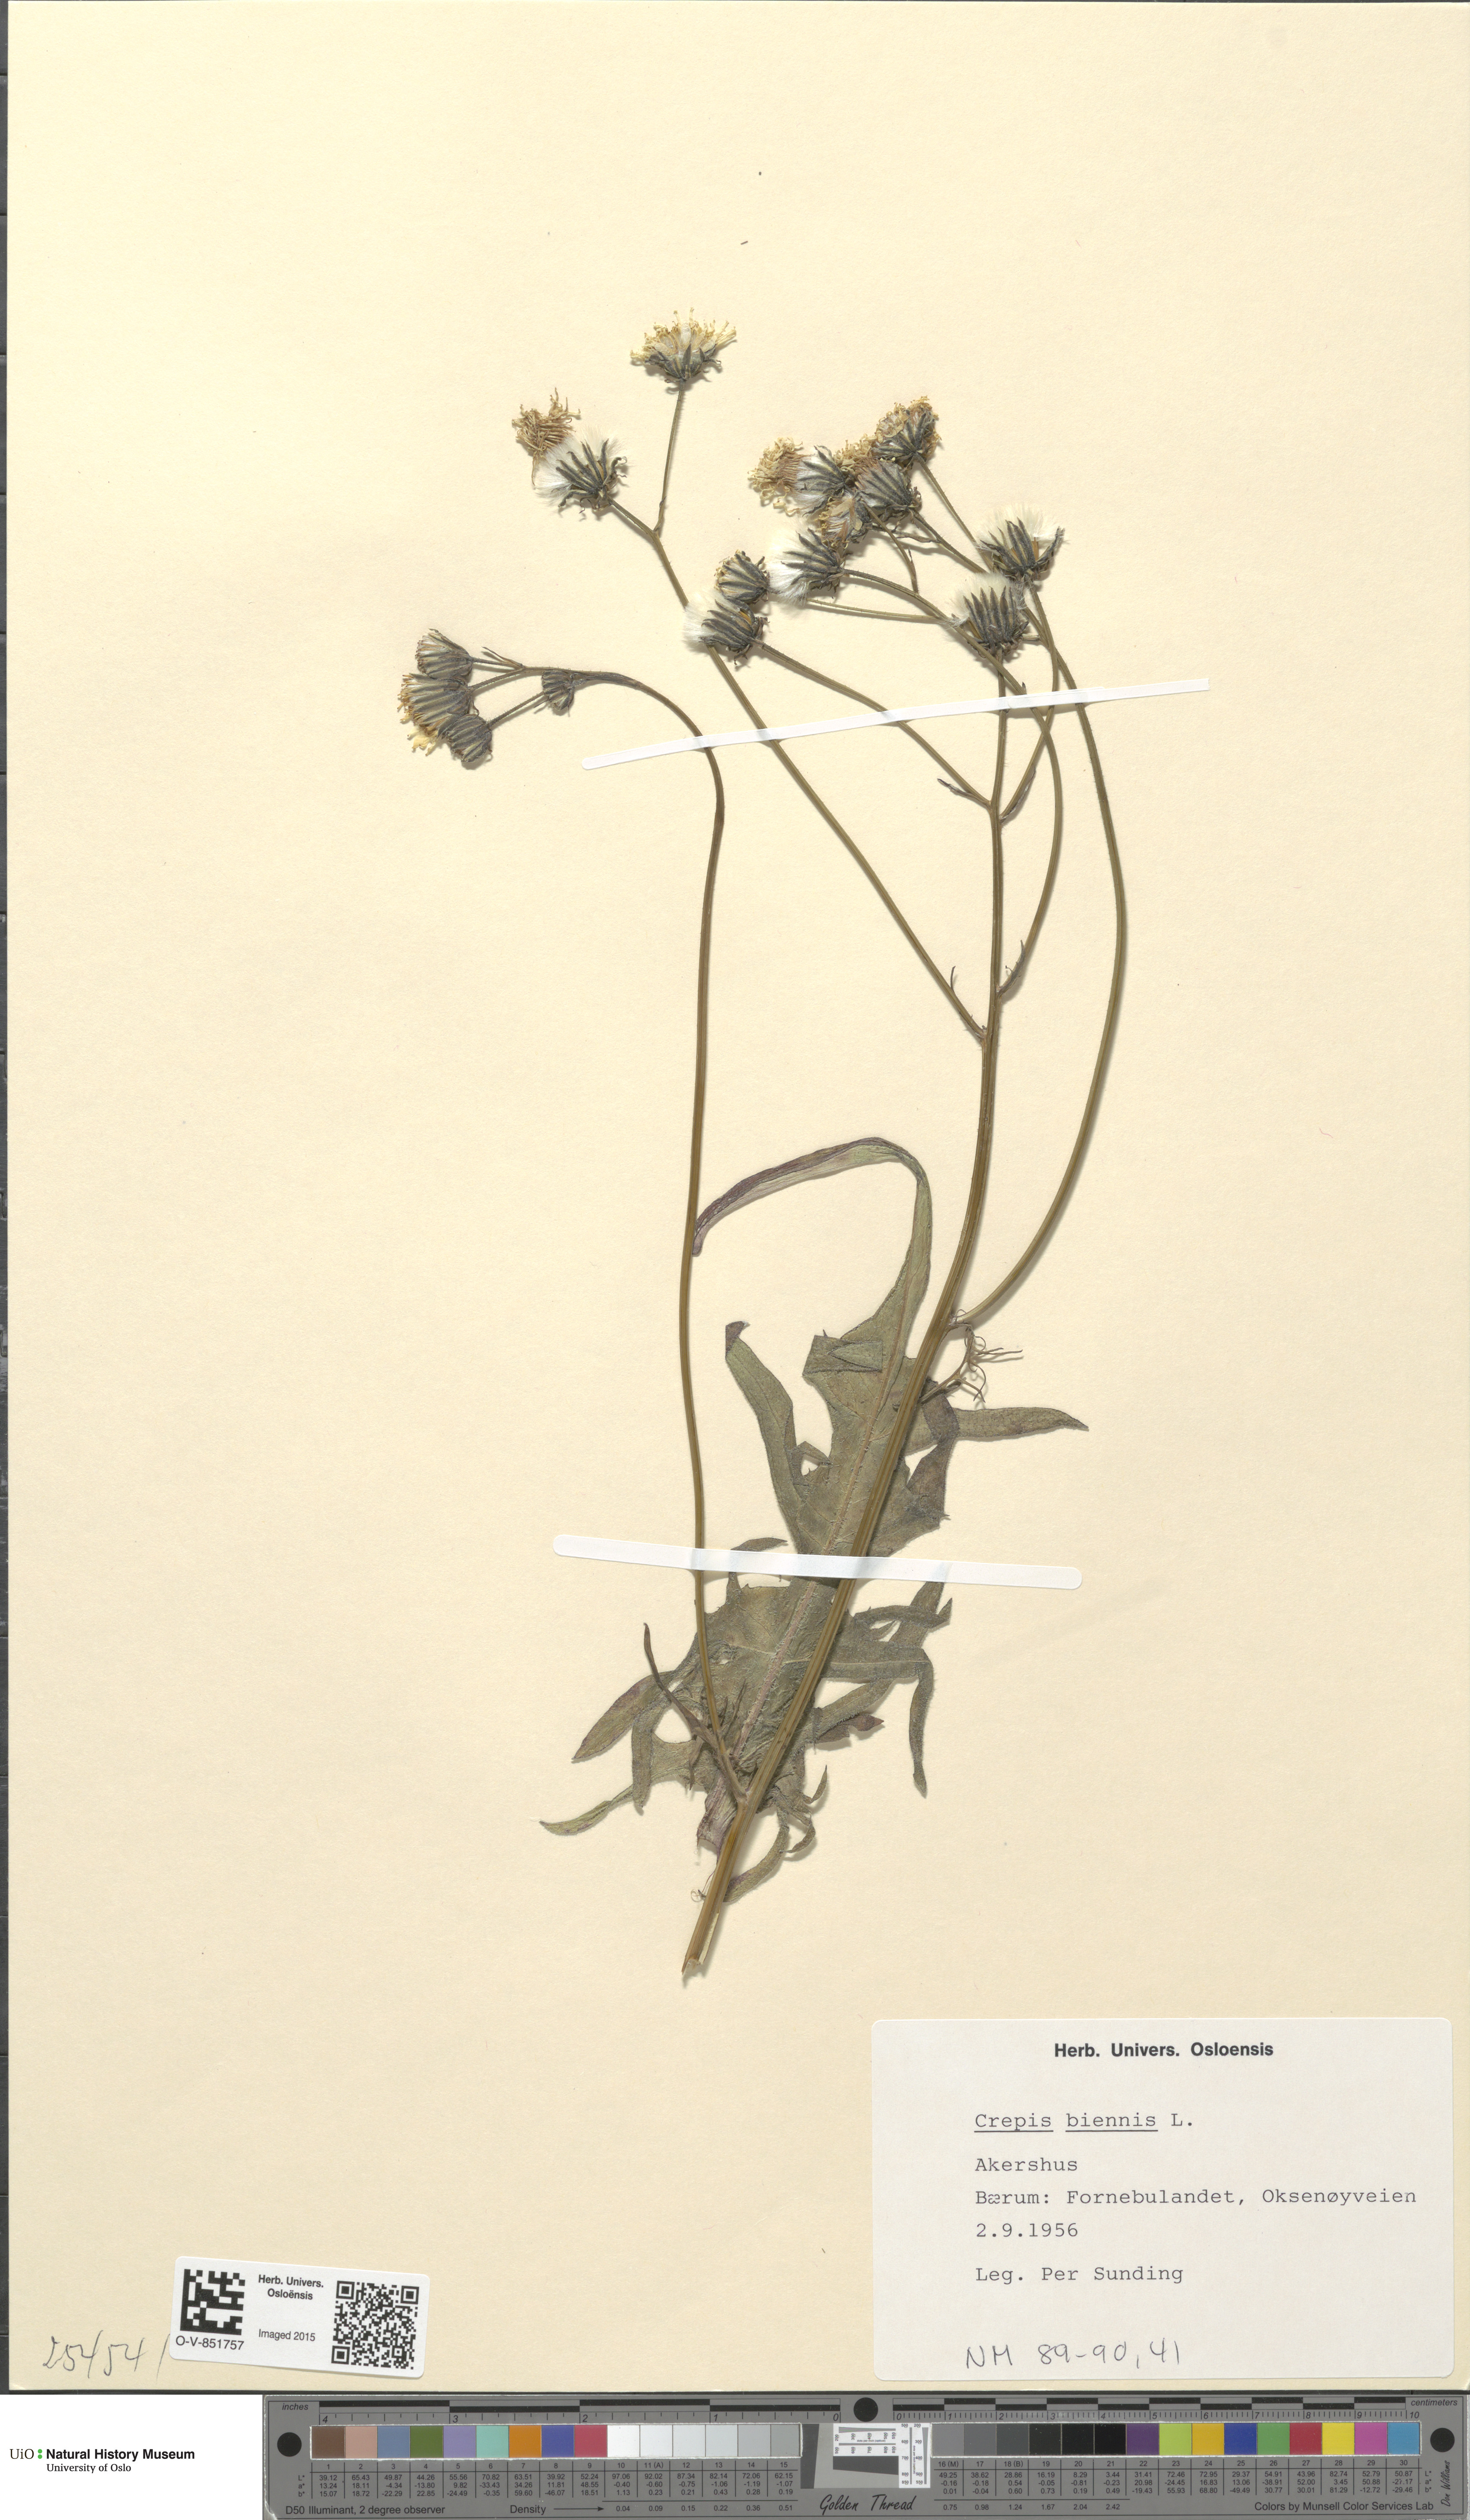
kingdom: Plantae
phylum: Tracheophyta
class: Magnoliopsida
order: Asterales
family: Asteraceae
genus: Crepis
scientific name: Crepis biennis
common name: Rough hawk's-beard
